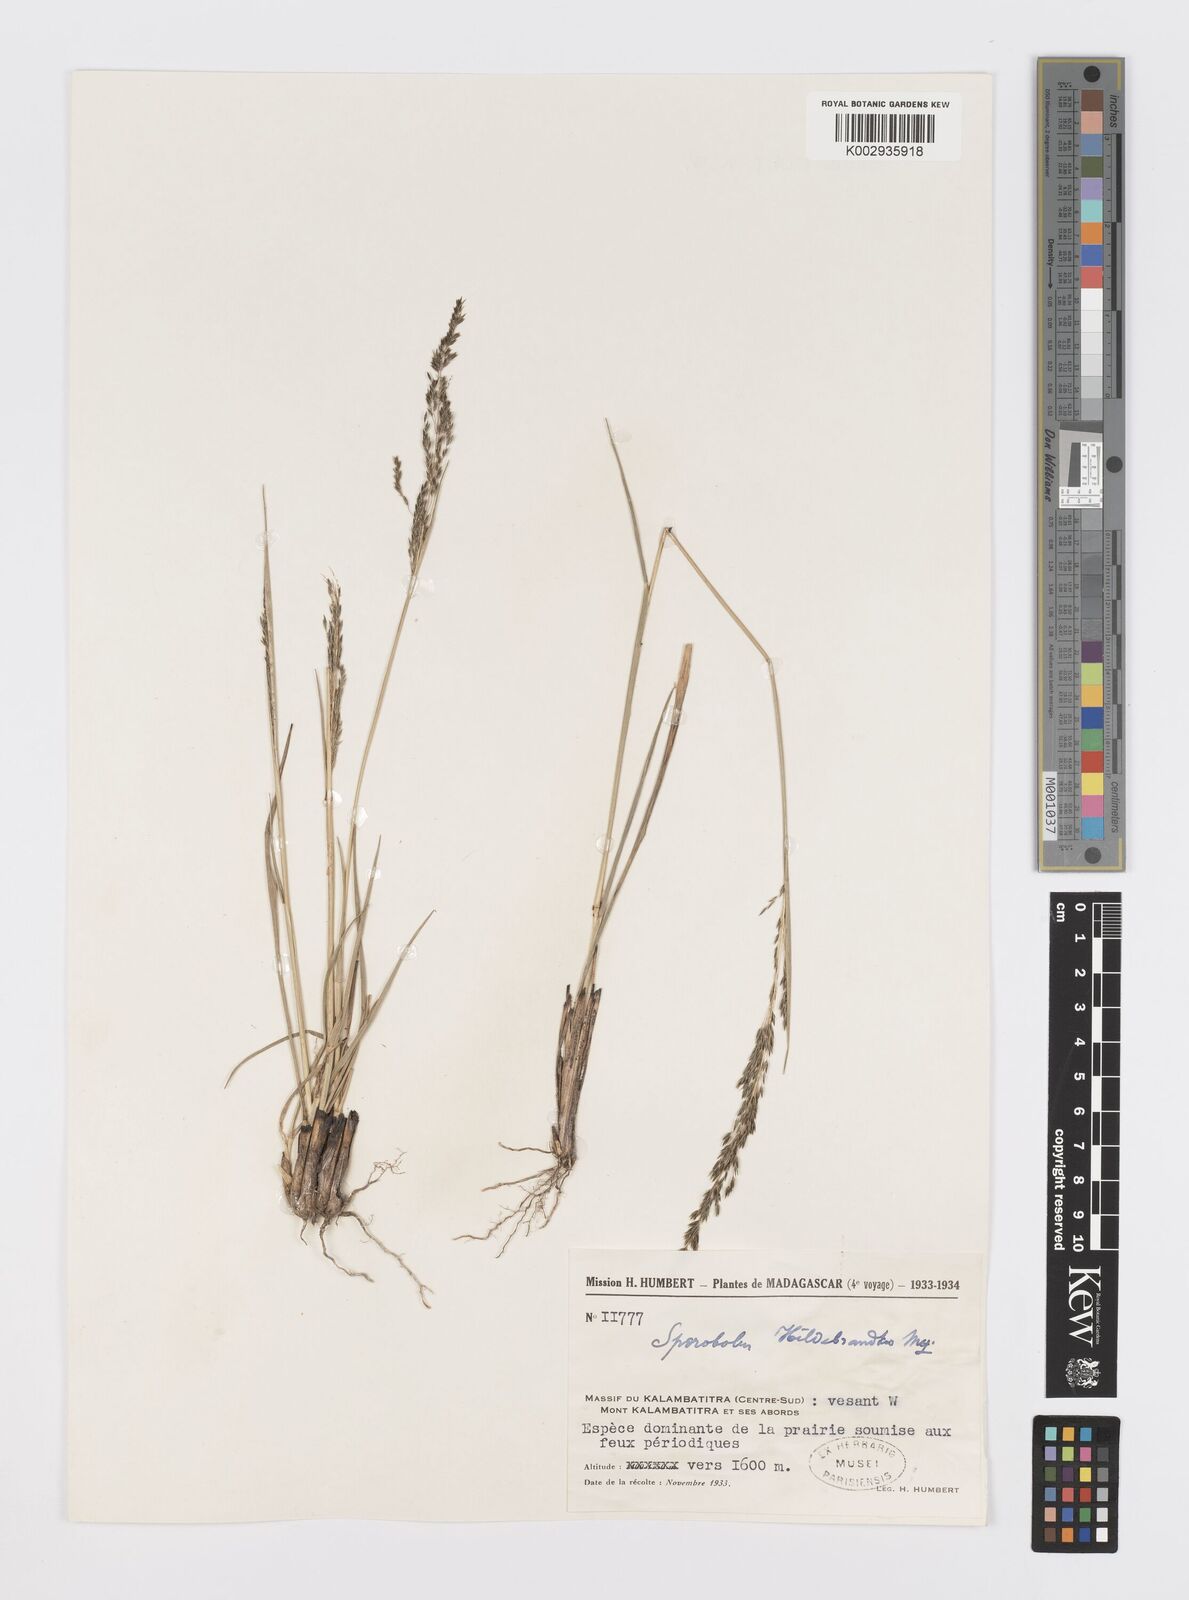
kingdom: Plantae
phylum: Tracheophyta
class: Liliopsida
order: Poales
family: Poaceae
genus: Sporobolus
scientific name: Sporobolus subulatus
